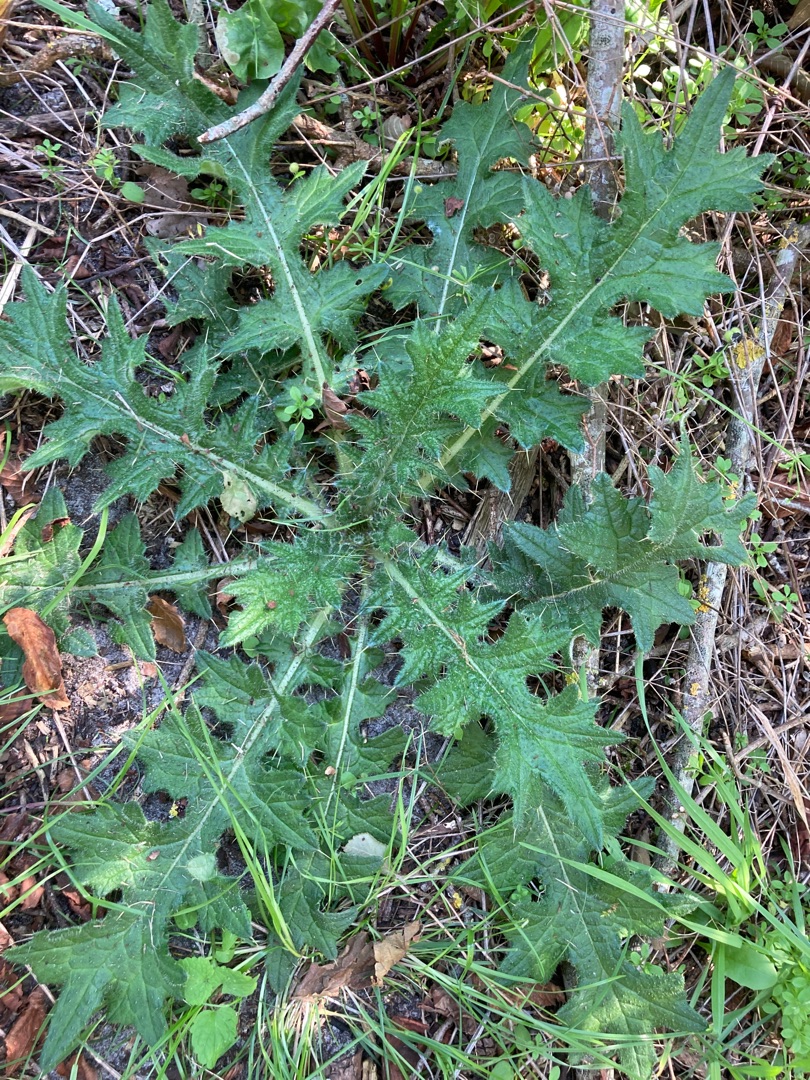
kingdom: Plantae
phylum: Tracheophyta
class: Magnoliopsida
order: Asterales
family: Asteraceae
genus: Cirsium
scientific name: Cirsium vulgare
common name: Horse-tidsel
